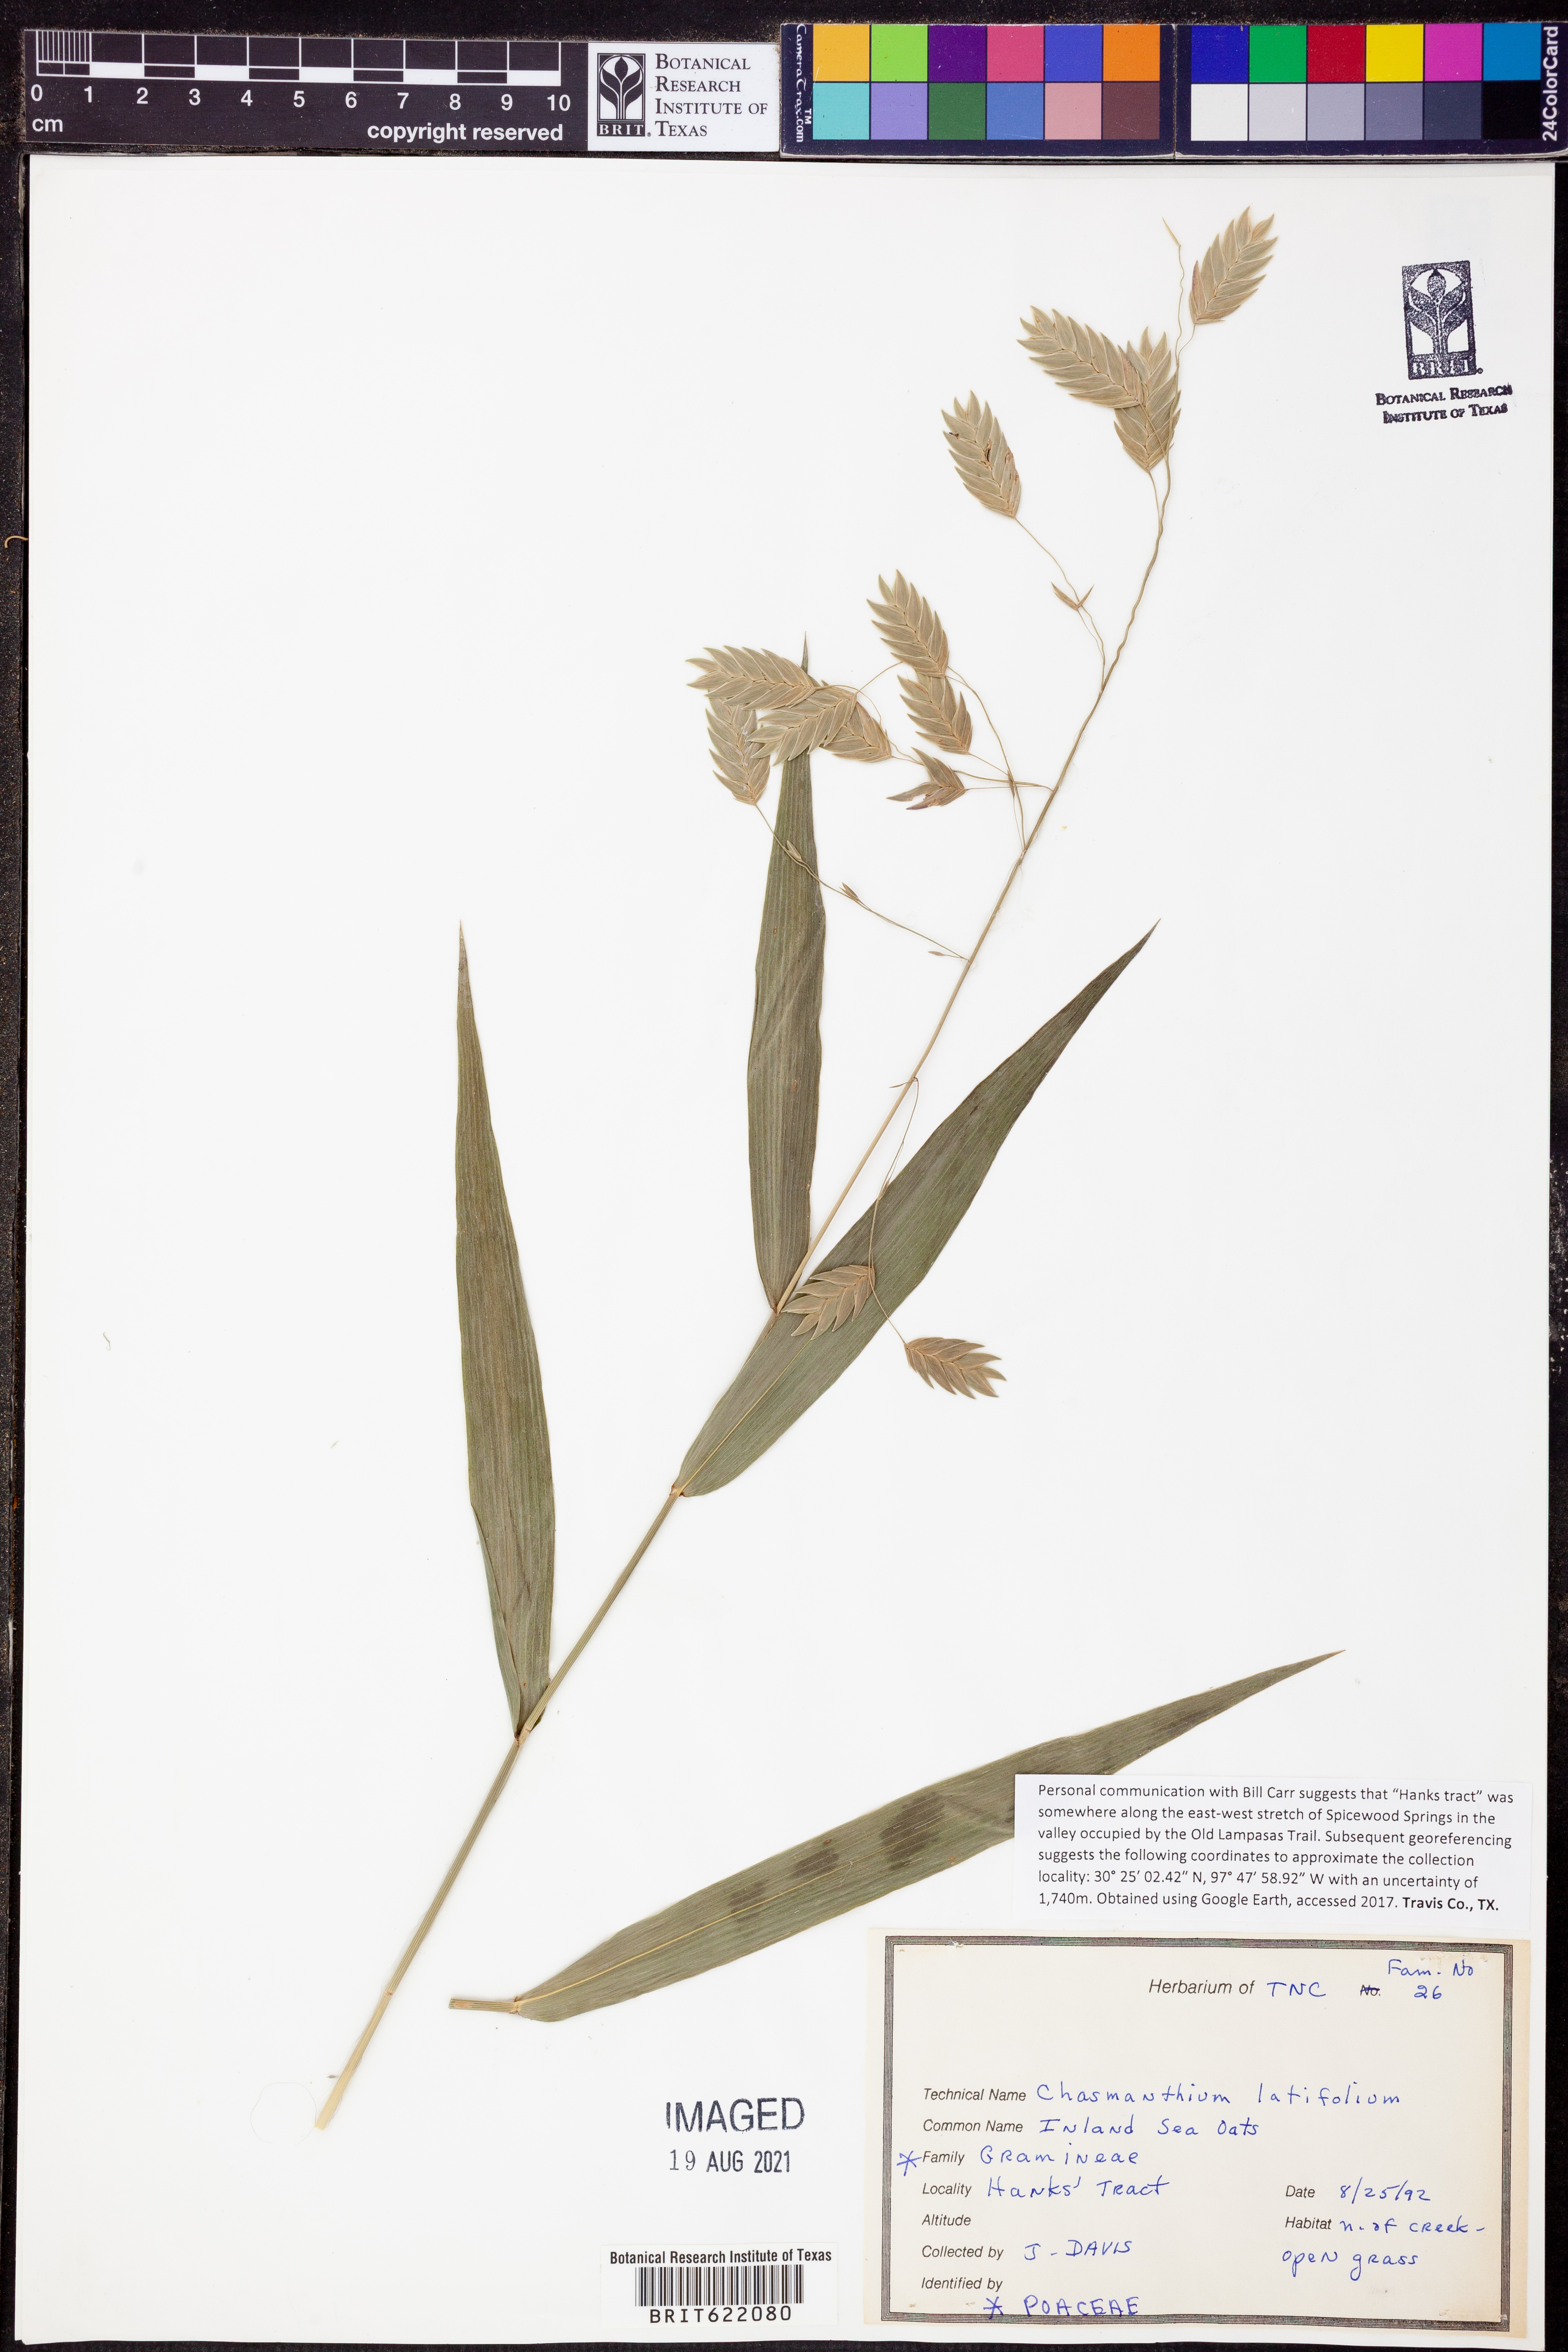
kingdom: Plantae
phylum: Tracheophyta
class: Liliopsida
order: Poales
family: Poaceae
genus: Chasmanthium
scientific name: Chasmanthium latifolium
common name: Broad-leaved chasmanthium
